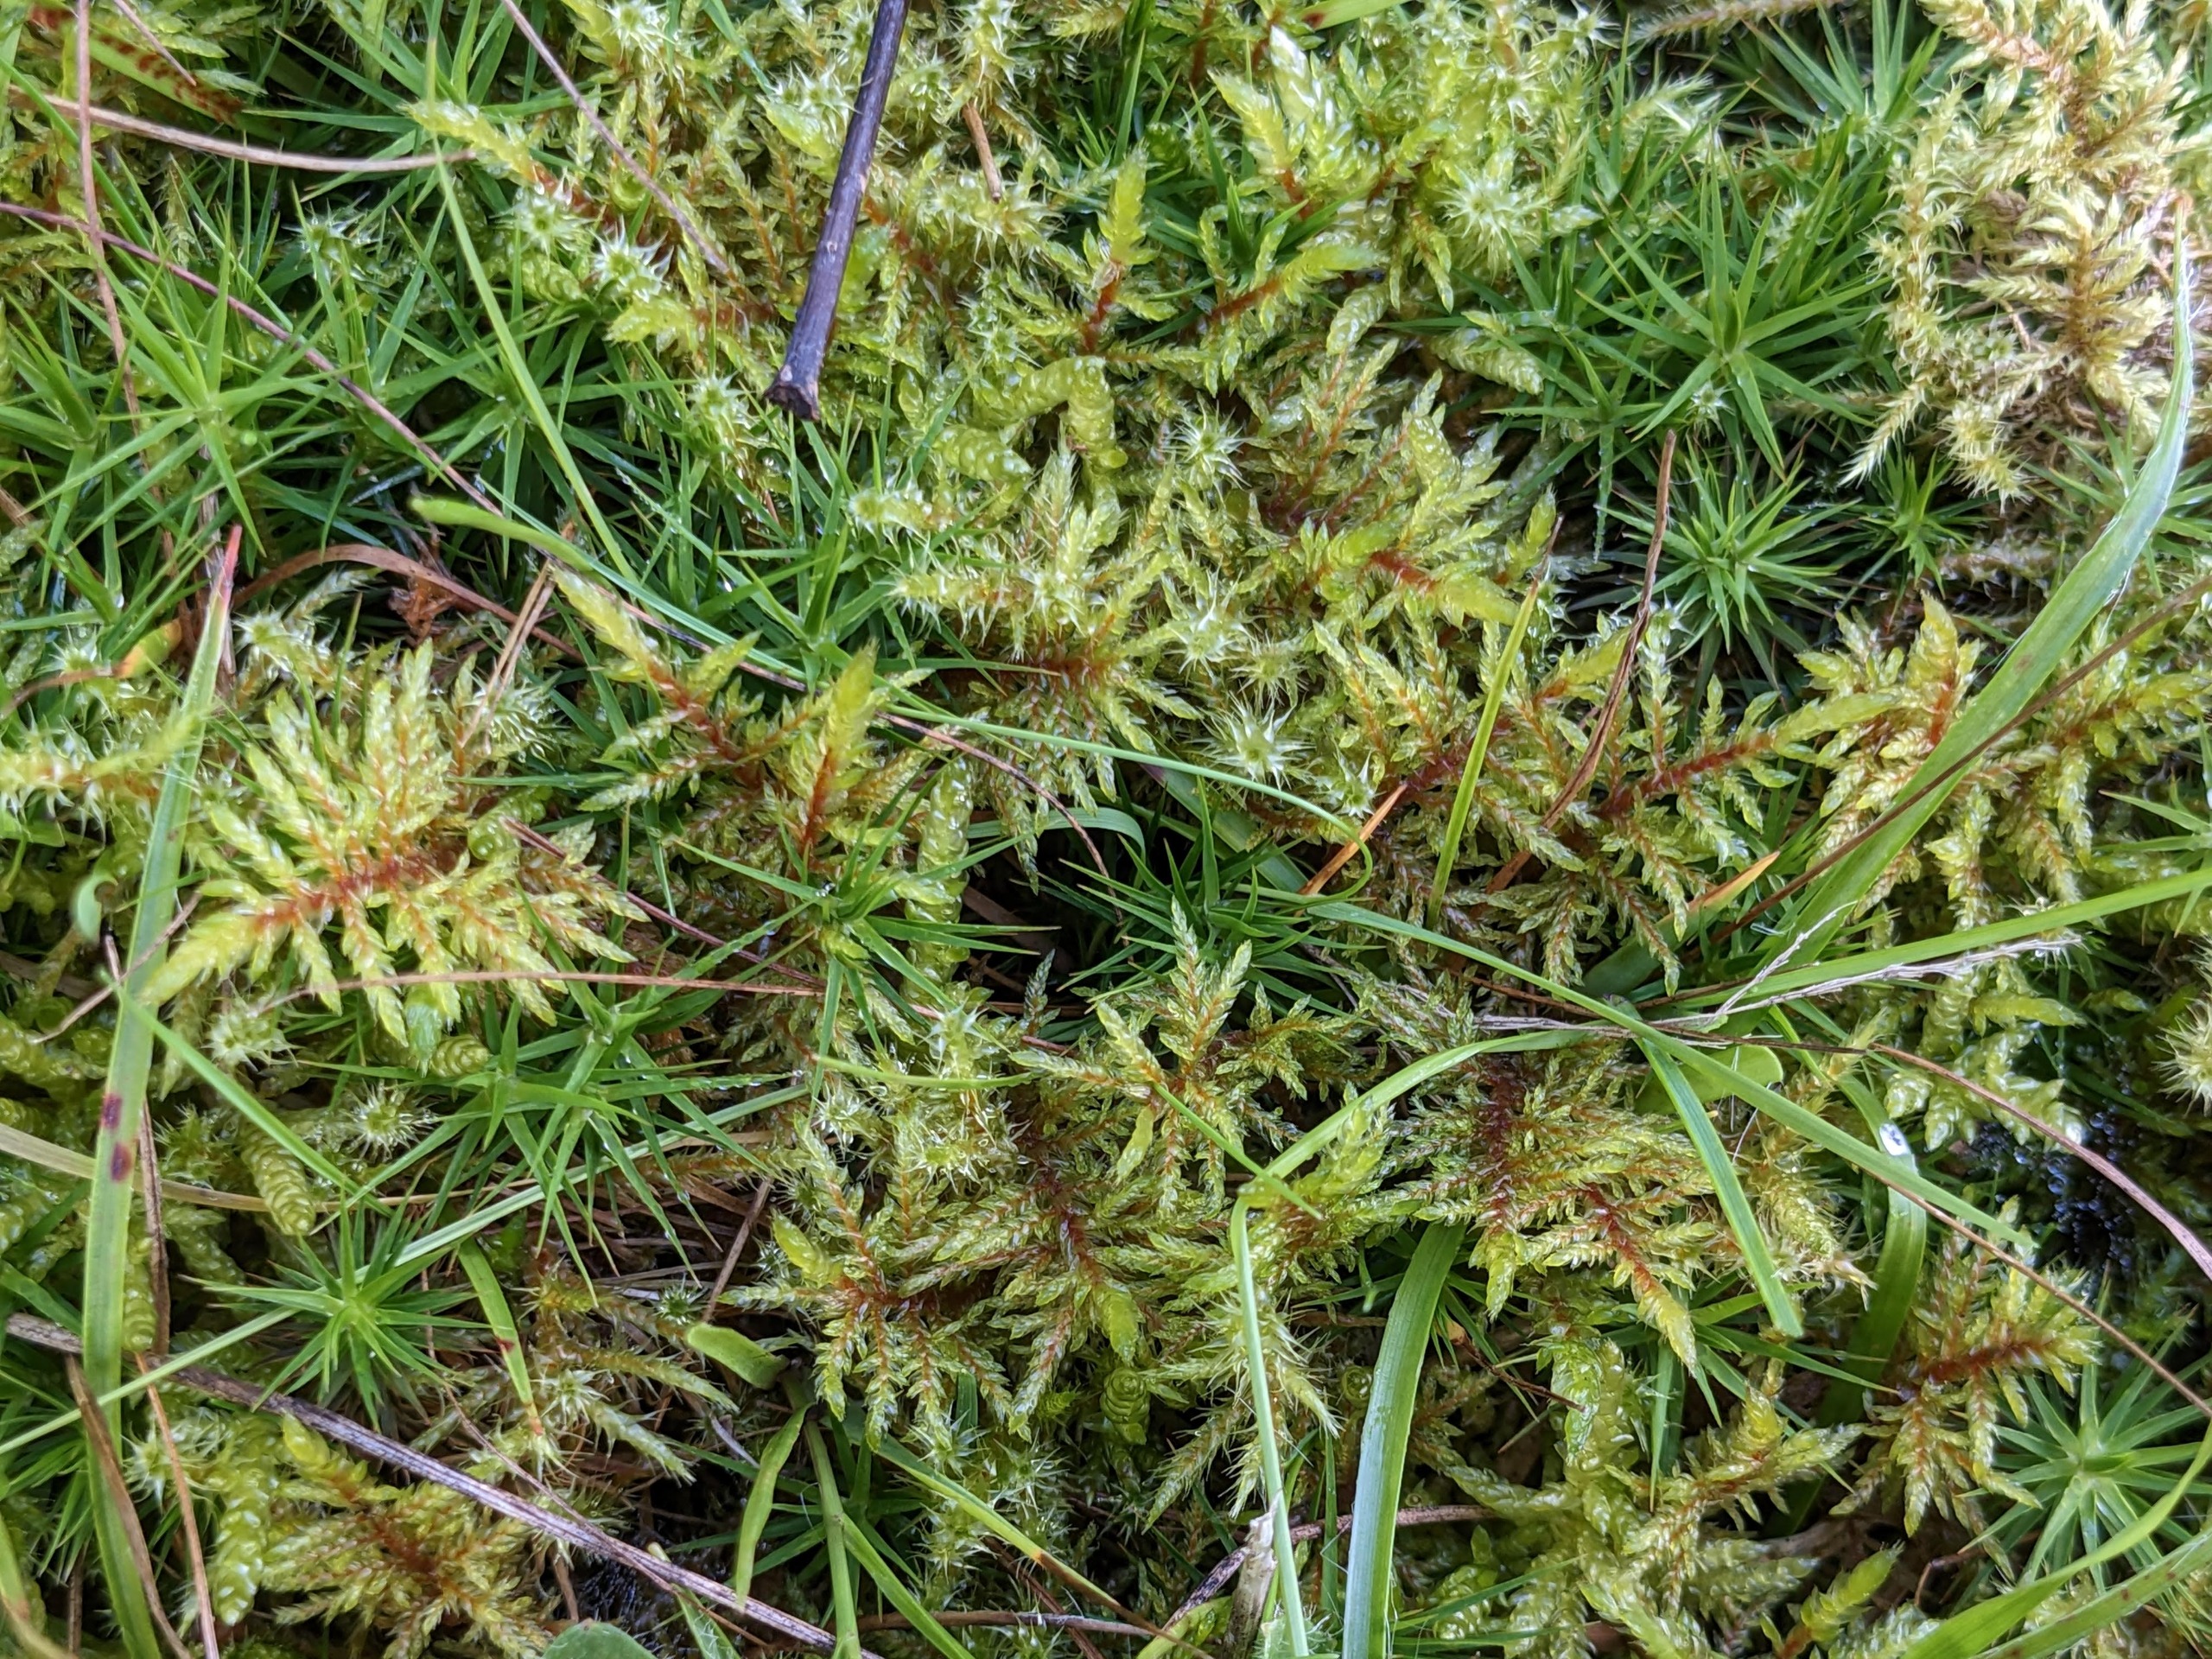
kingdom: Plantae
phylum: Bryophyta
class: Bryopsida
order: Hypnales
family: Hylocomiaceae
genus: Hylocomium
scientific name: Hylocomium splendens
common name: Almindelig etagemos
